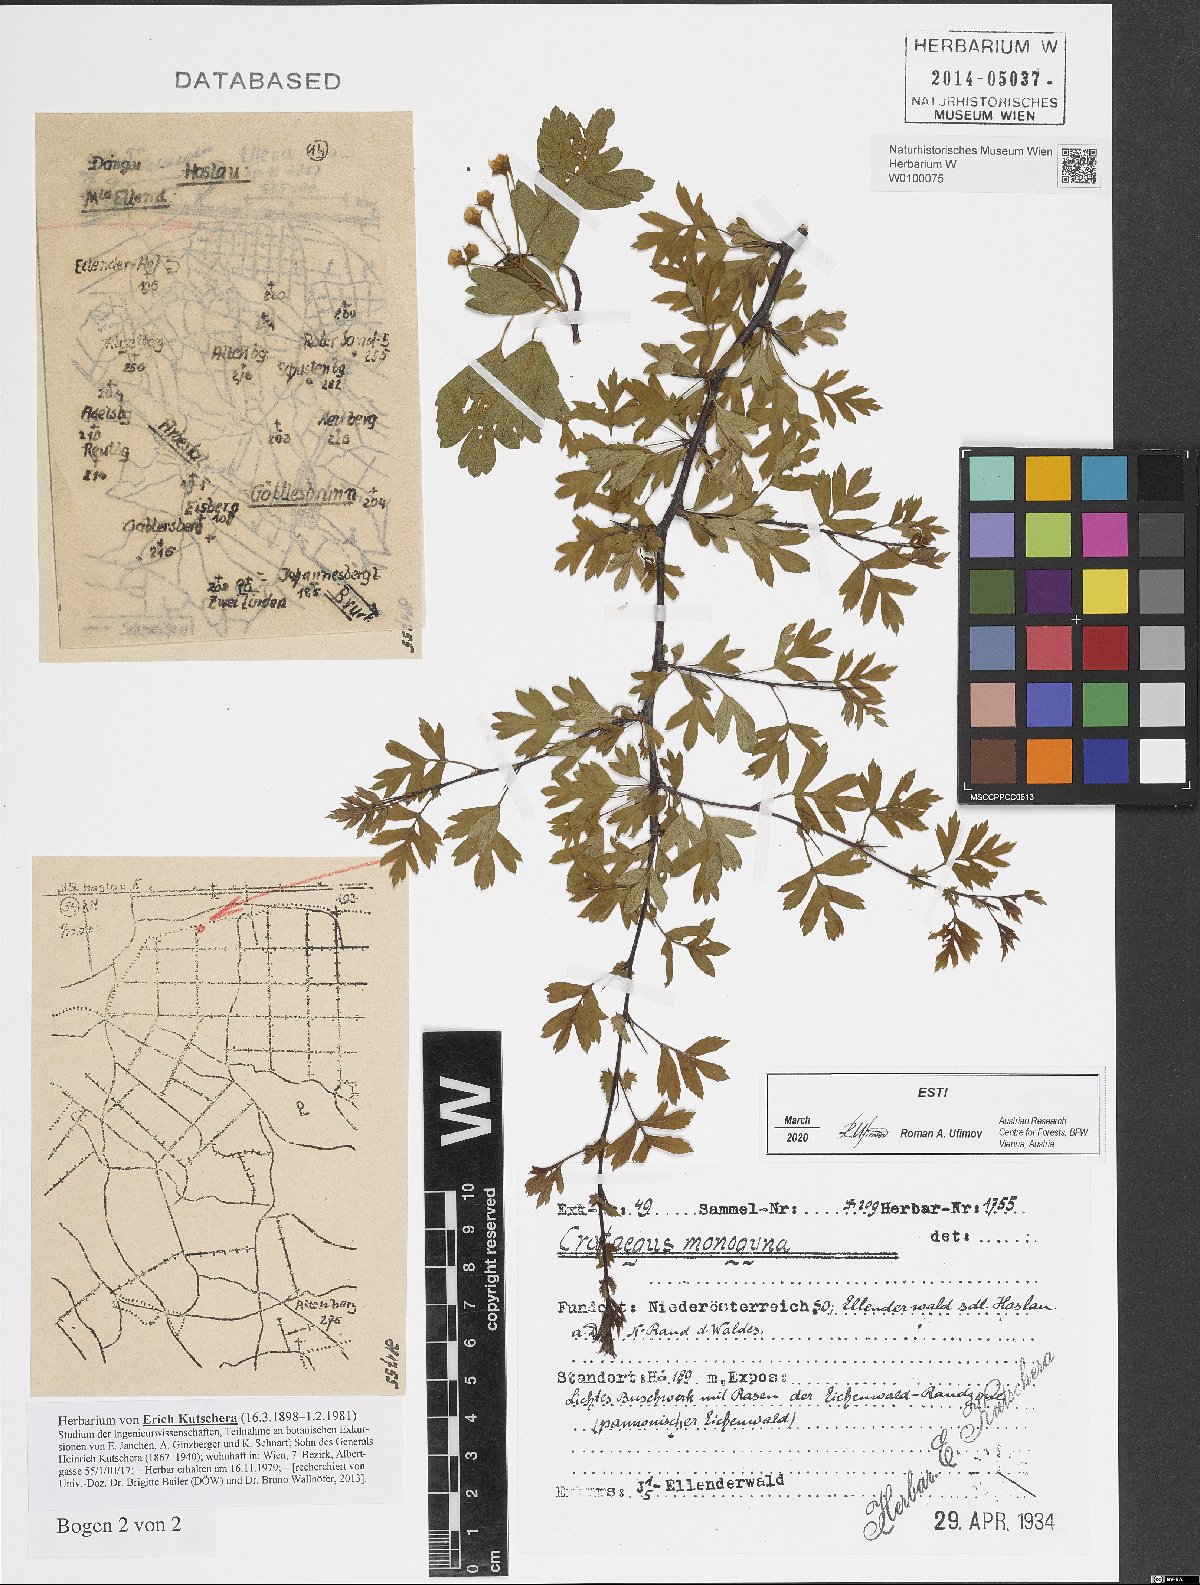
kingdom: Plantae
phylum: Tracheophyta
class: Magnoliopsida
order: Rosales
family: Rosaceae
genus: Crataegus
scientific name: Crataegus monogyna
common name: Hawthorn
